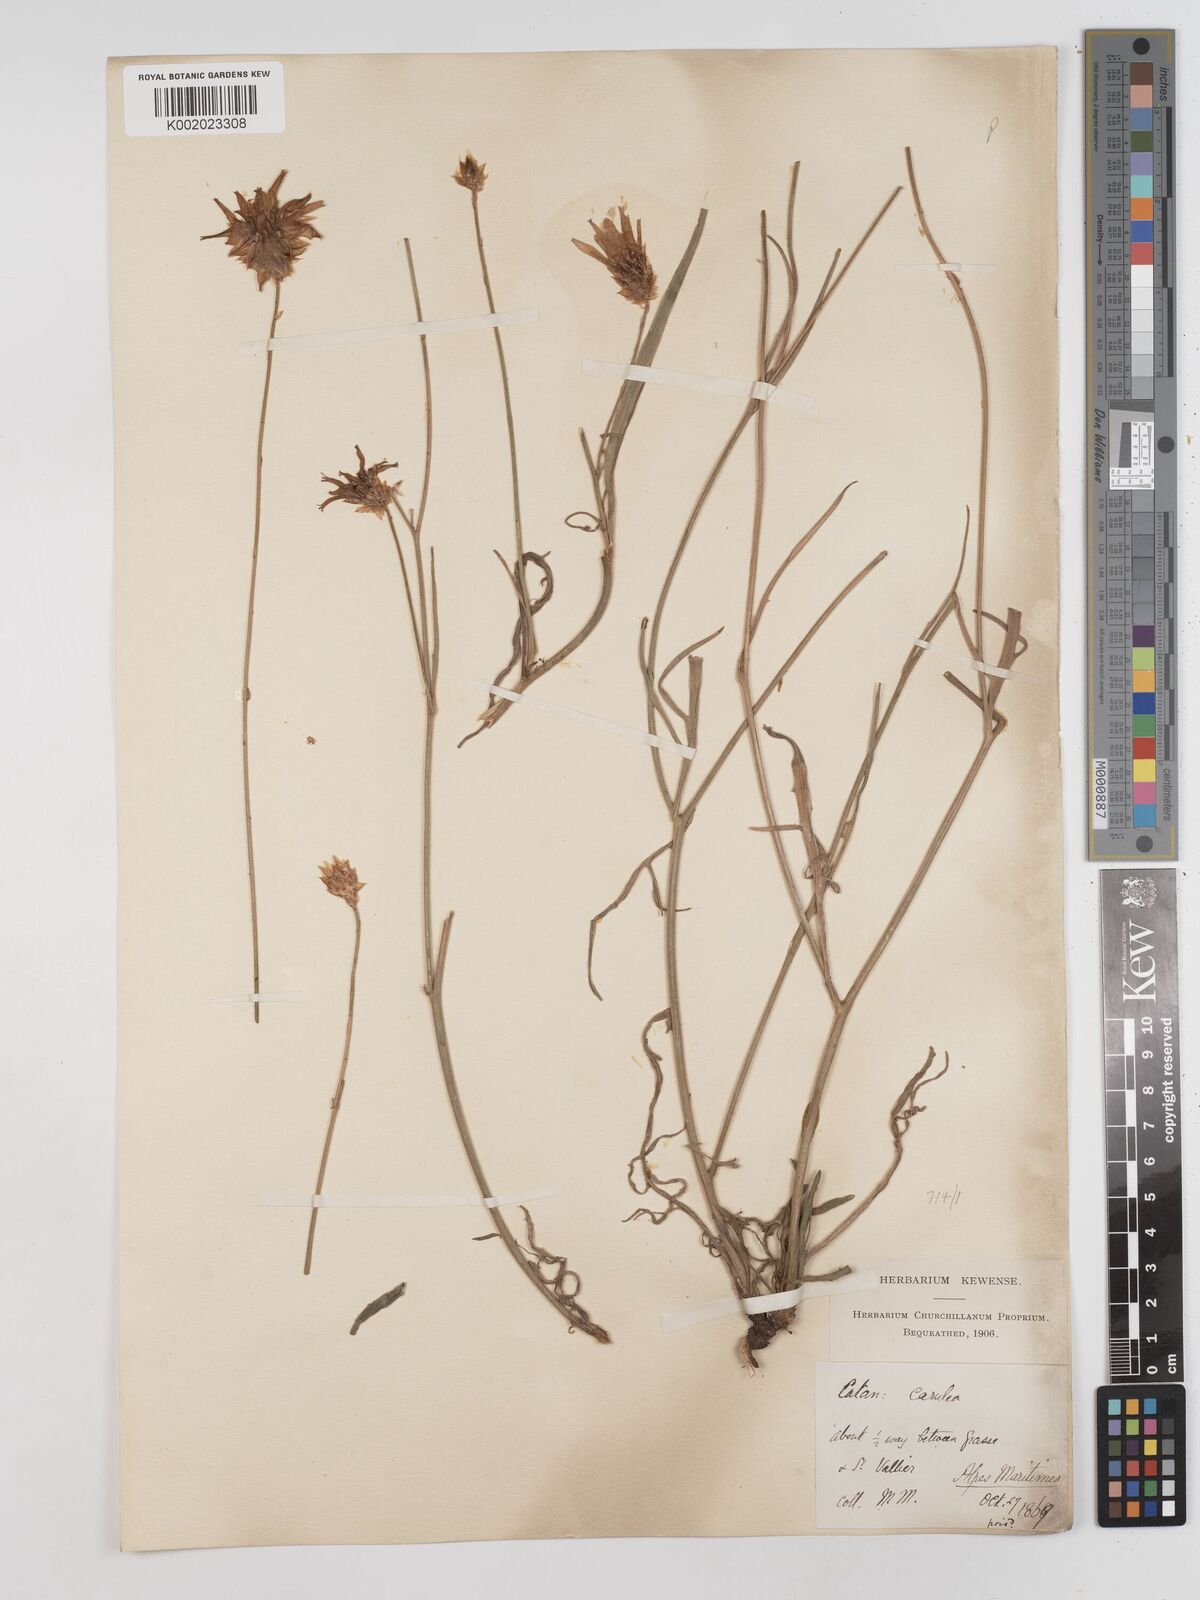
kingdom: Plantae
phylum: Tracheophyta
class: Magnoliopsida
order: Asterales
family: Asteraceae
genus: Catananche
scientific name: Catananche caerulea
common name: Blue cupidone
